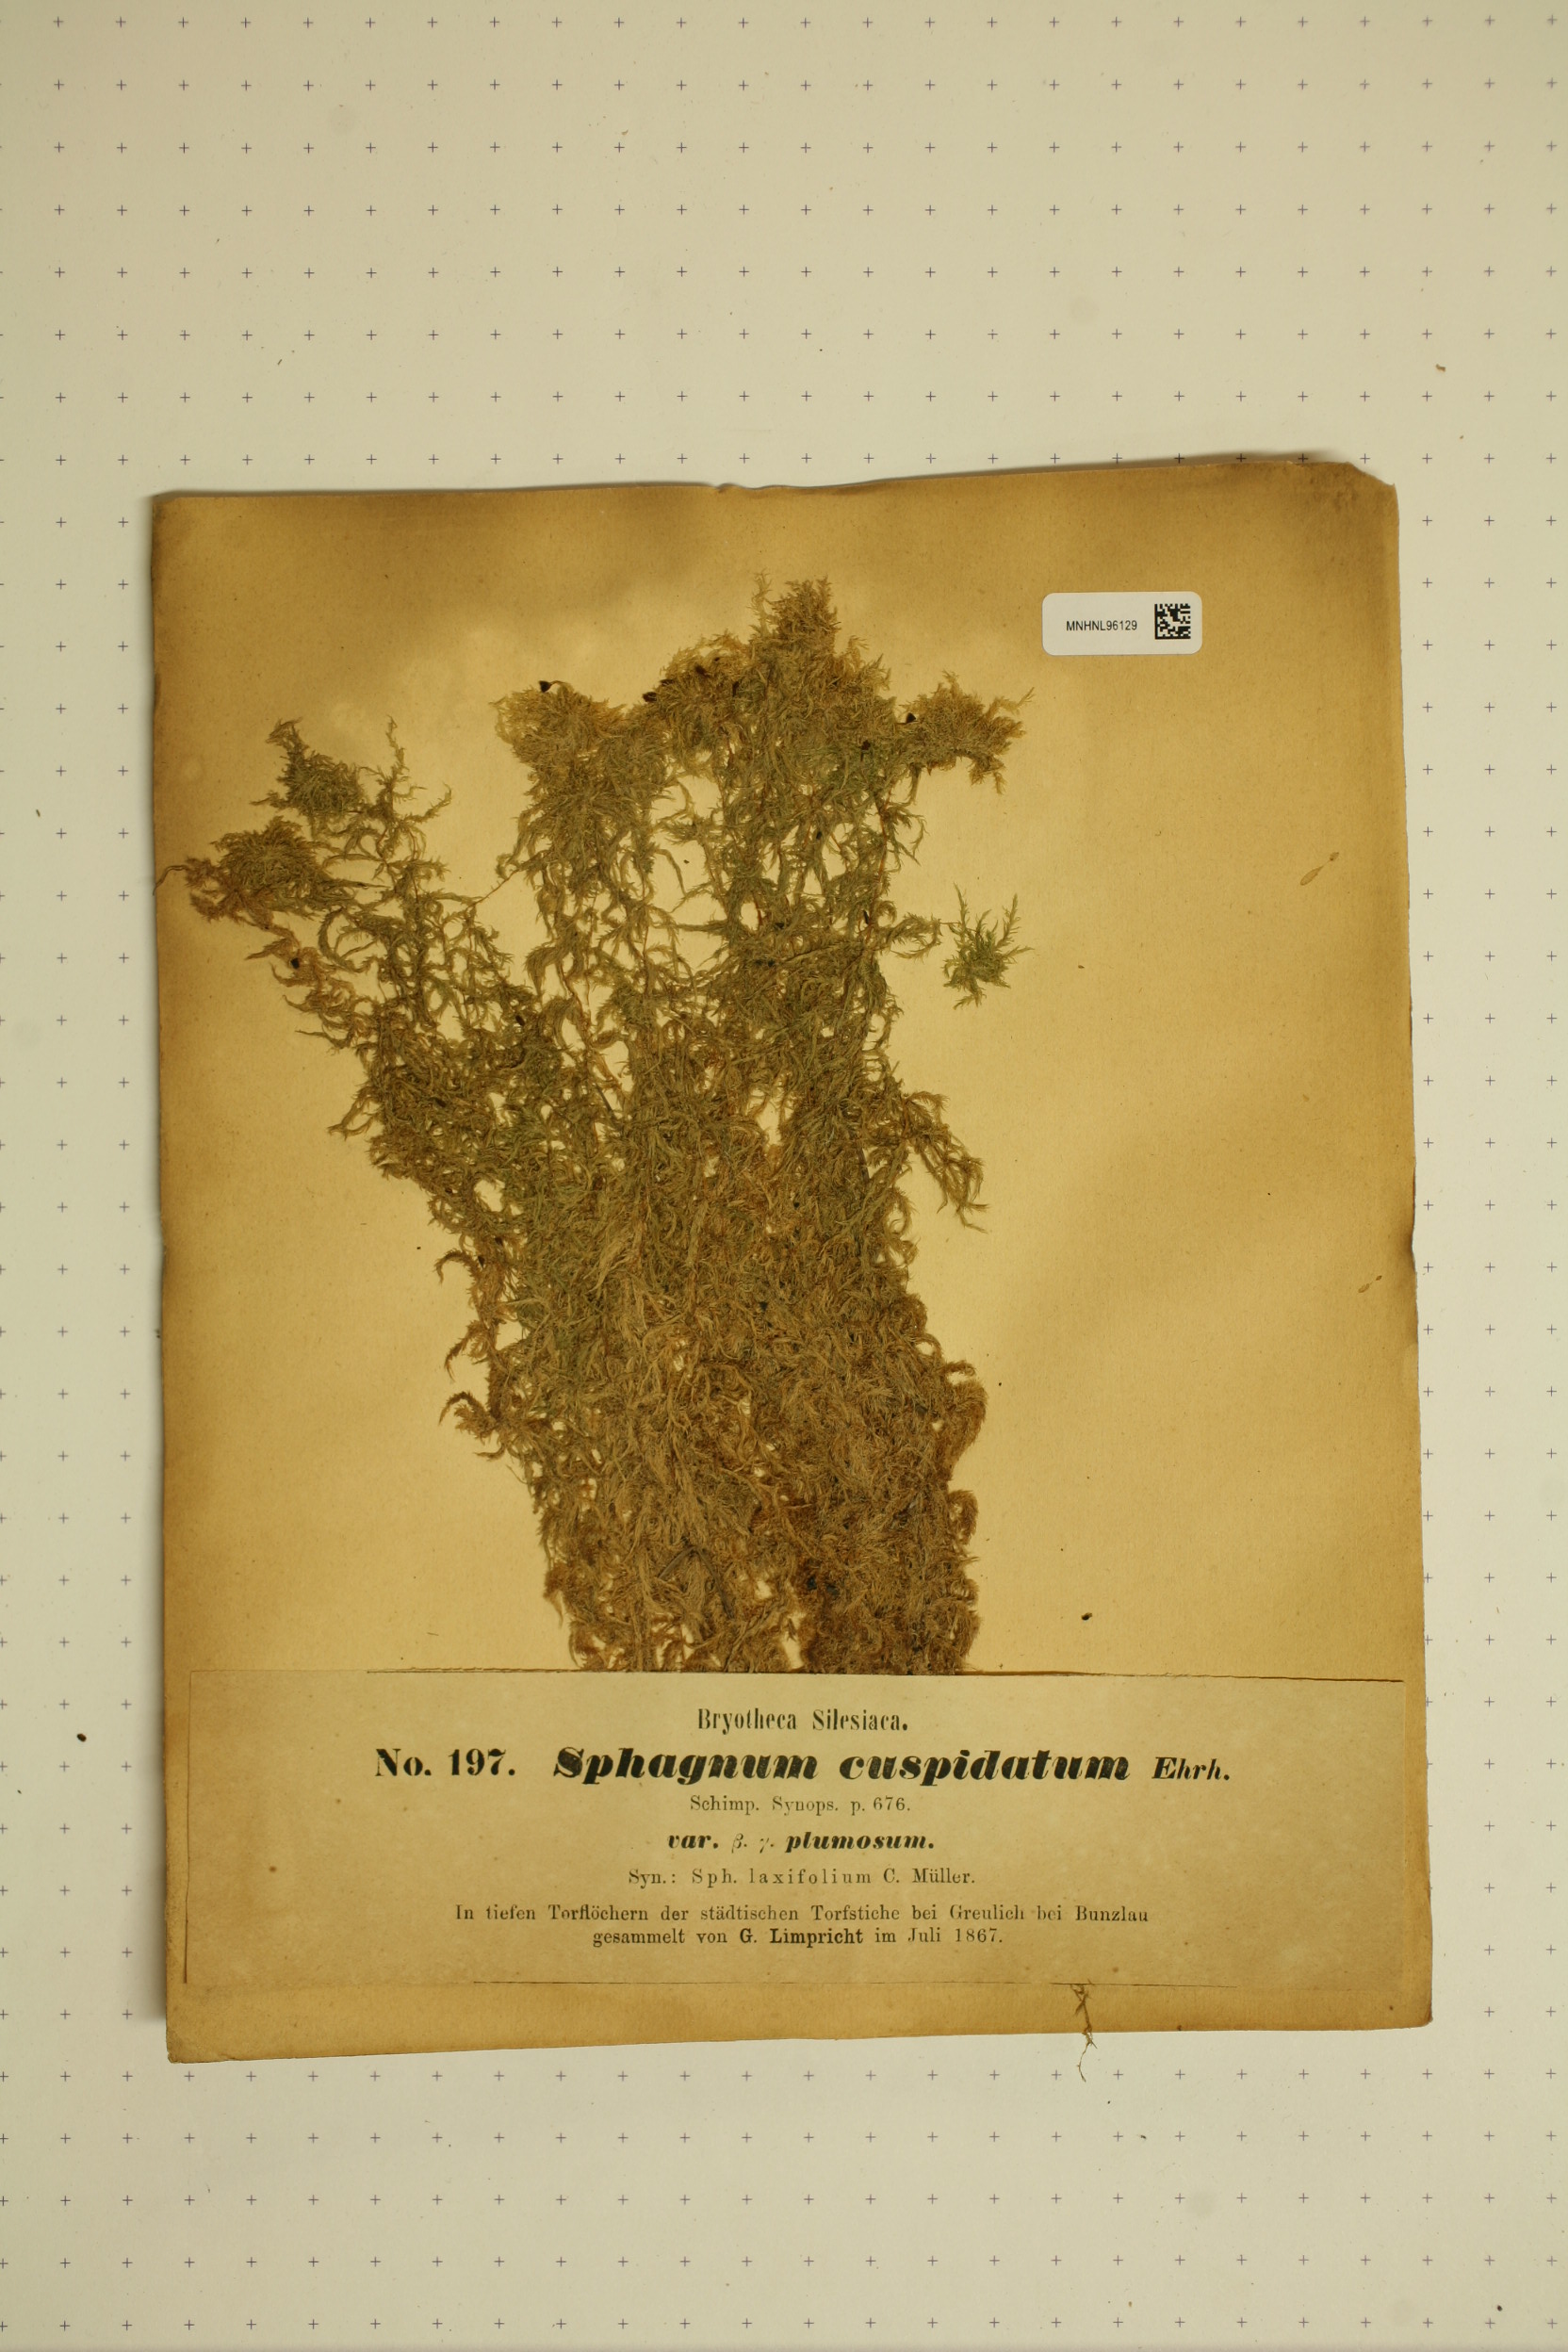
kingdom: Plantae
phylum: Bryophyta
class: Sphagnopsida
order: Sphagnales
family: Sphagnaceae
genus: Sphagnum
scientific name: Sphagnum cuspidatum
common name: Feathery peat moss
